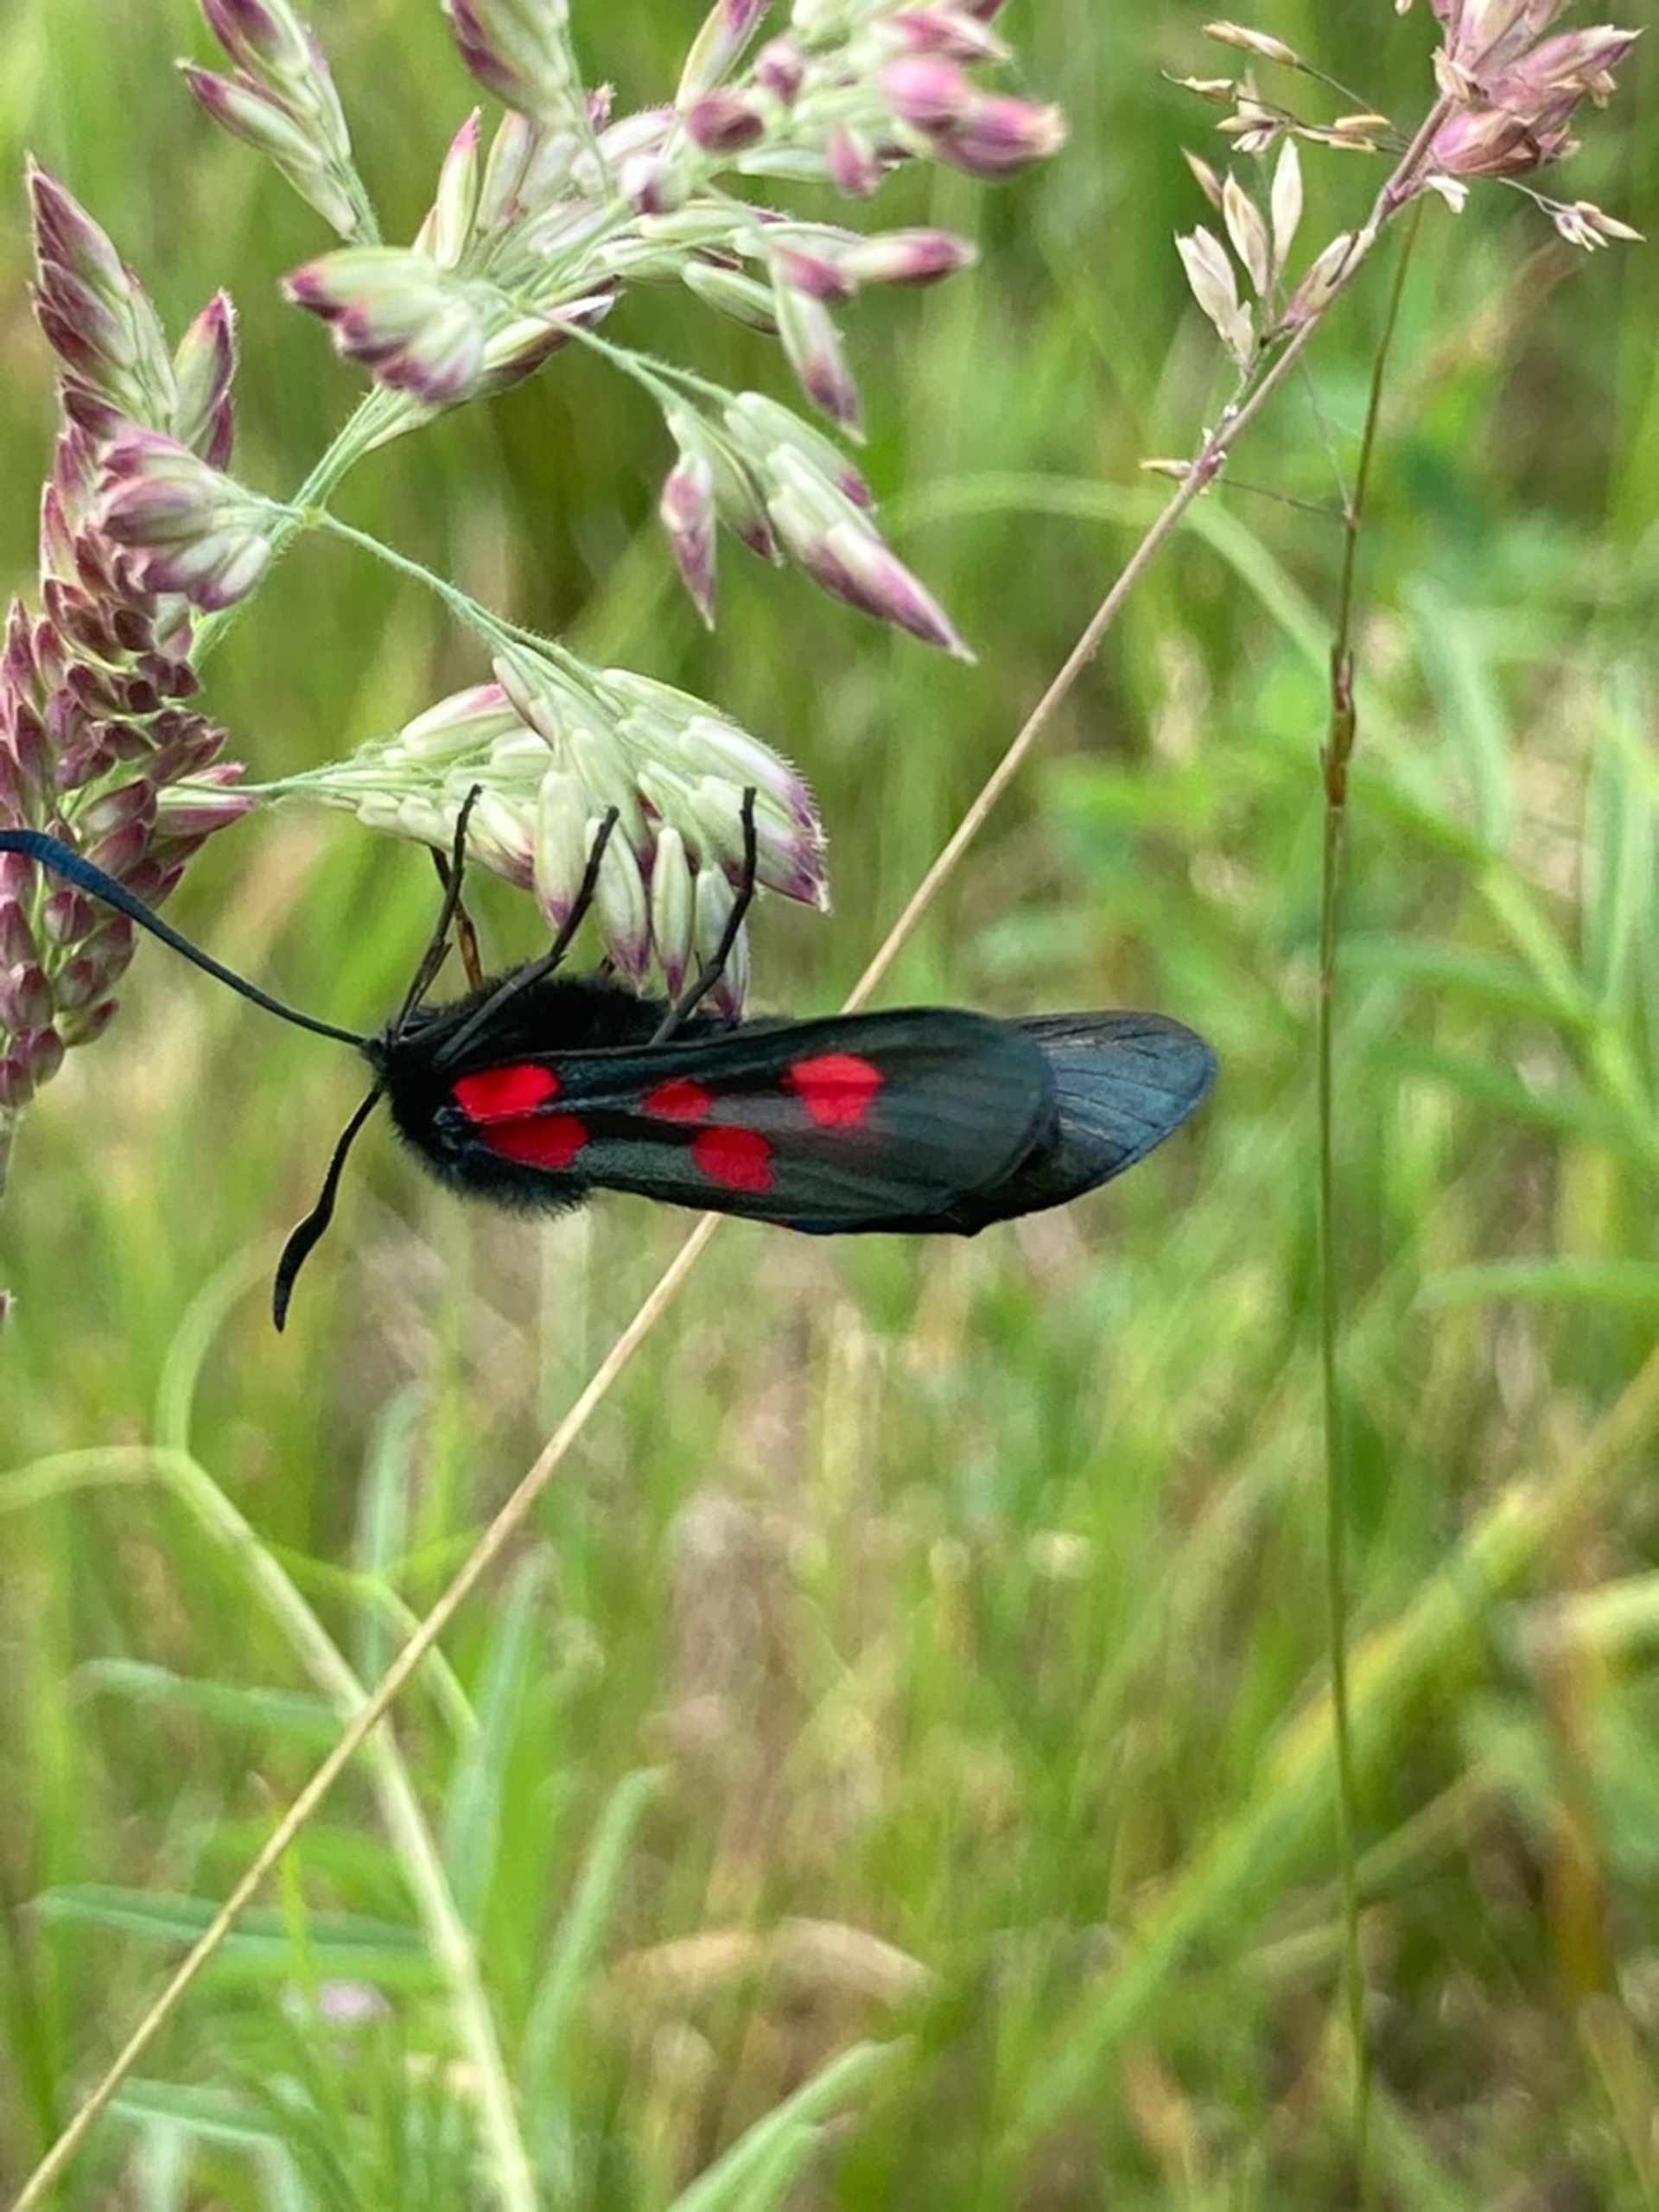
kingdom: Animalia
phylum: Arthropoda
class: Insecta
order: Lepidoptera
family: Zygaenidae
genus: Zygaena
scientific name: Zygaena lonicerae
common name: Femplettet køllesværmer
